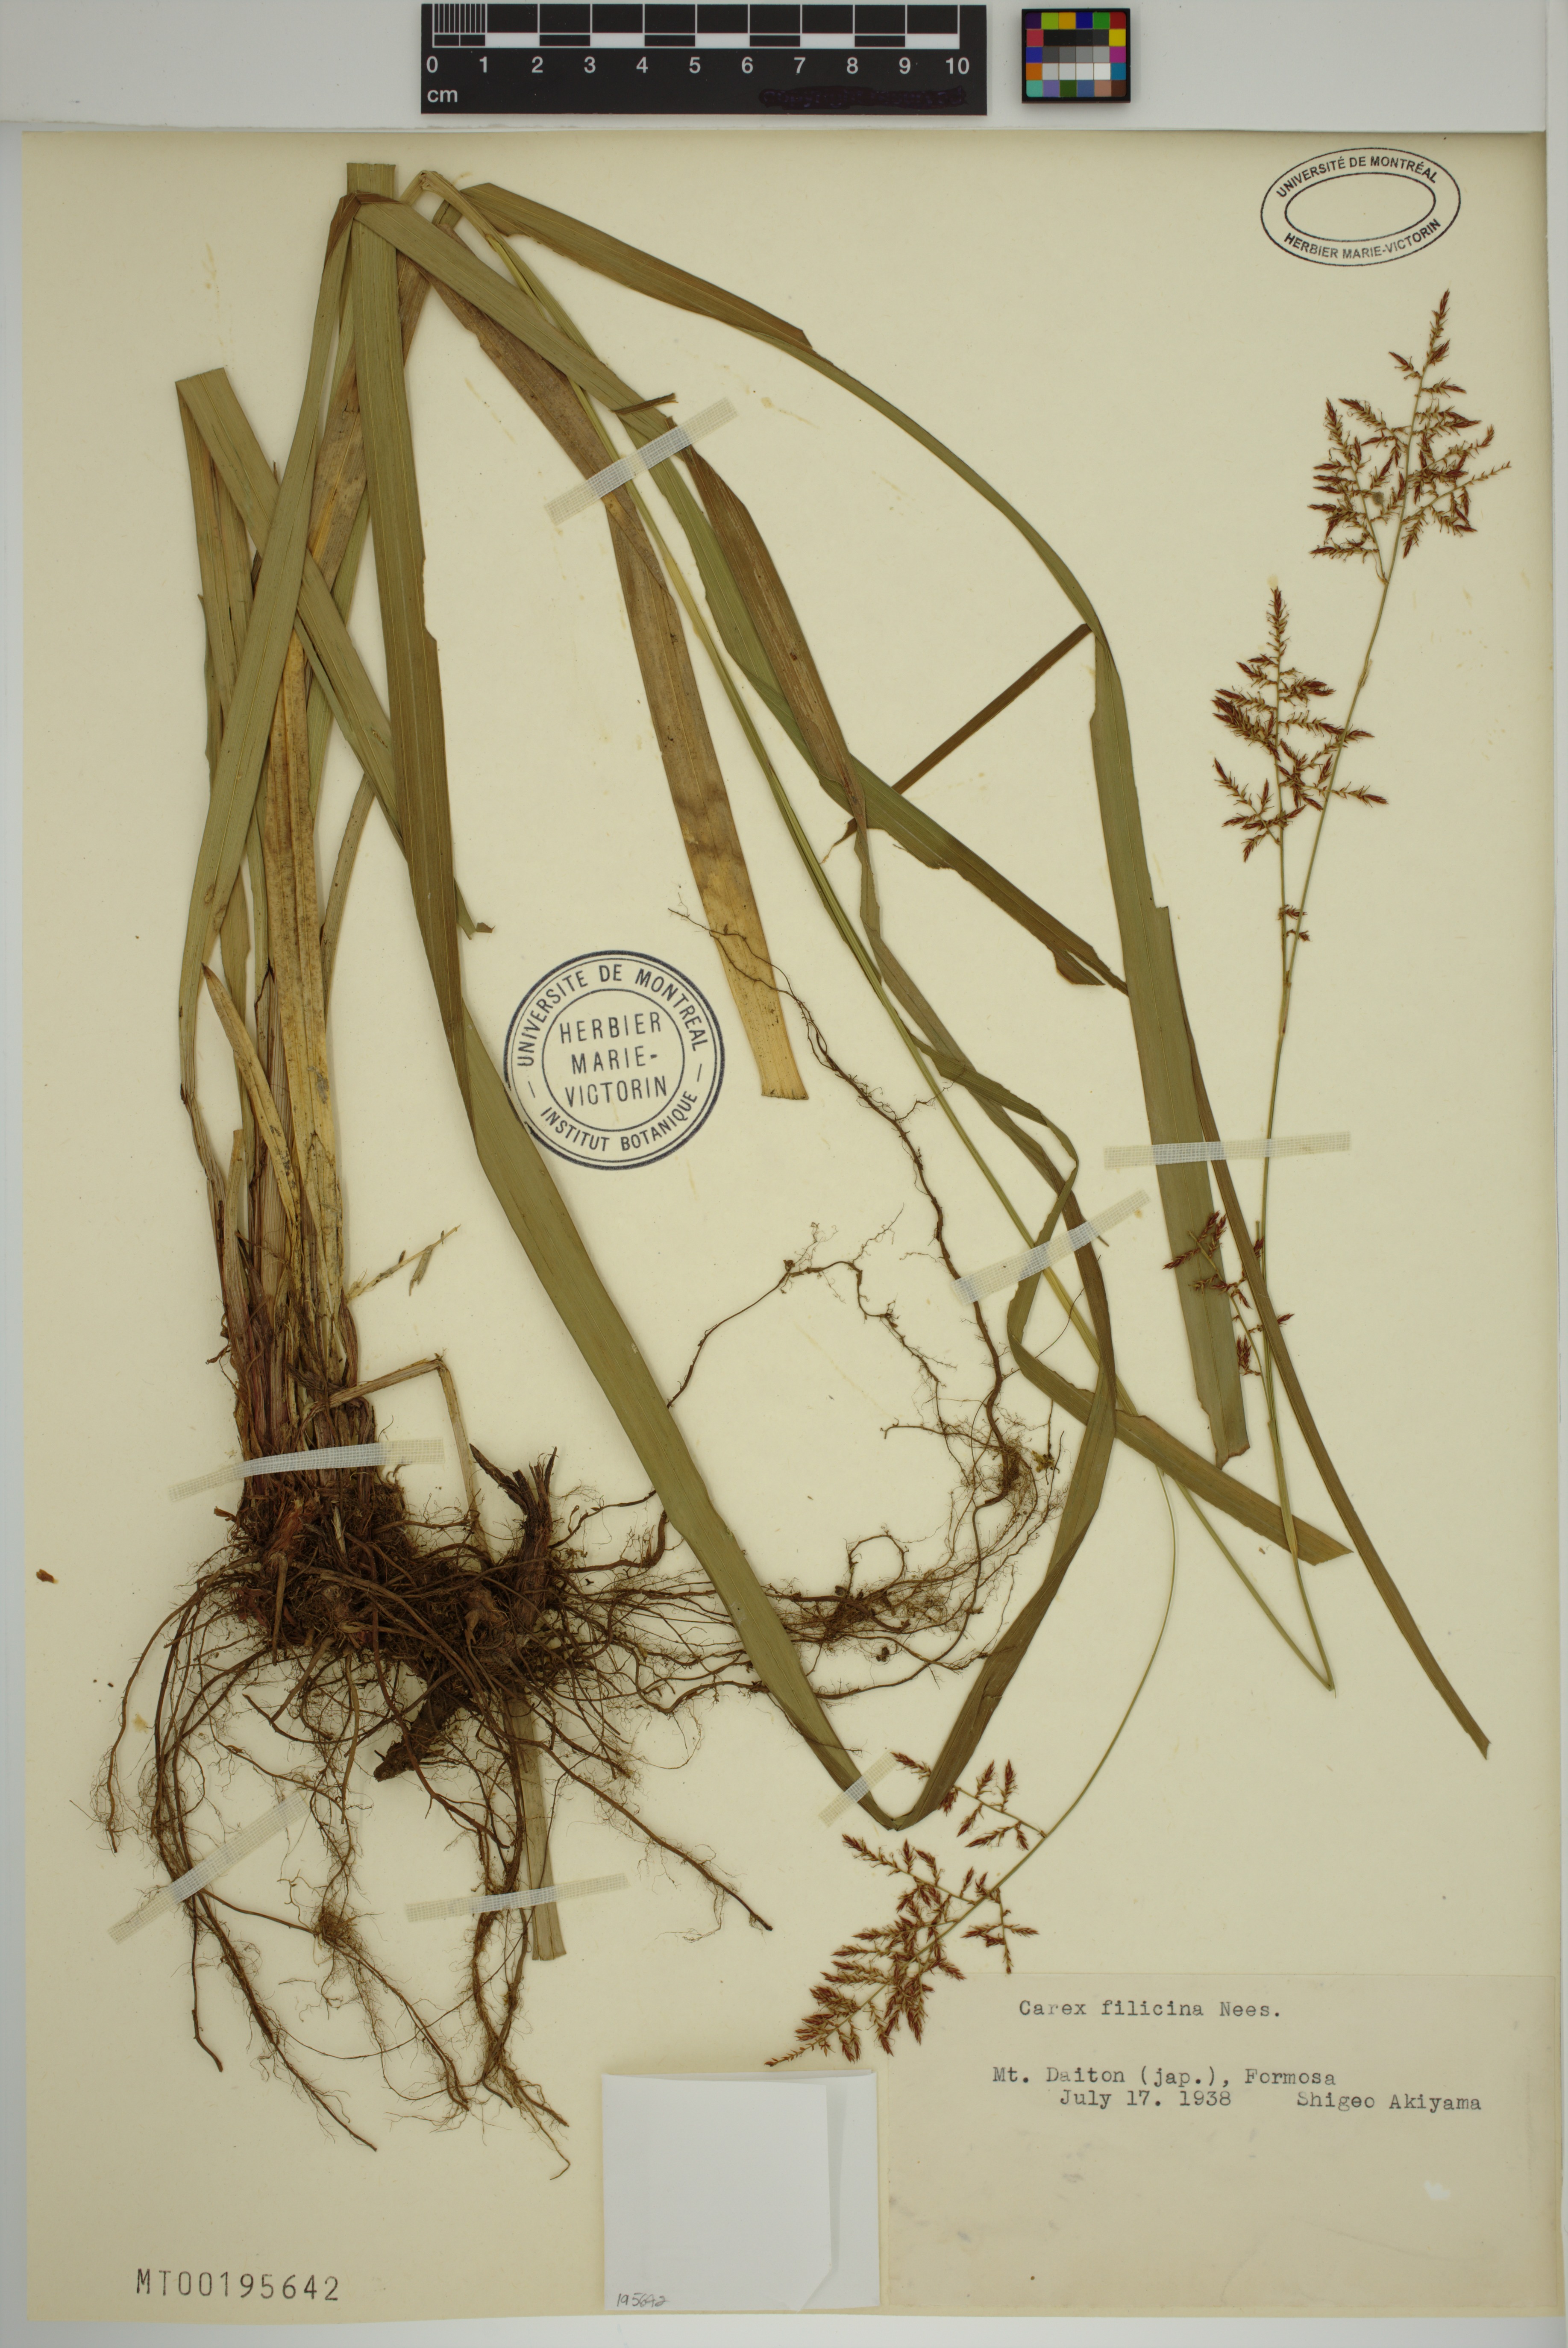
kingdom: Plantae
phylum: Tracheophyta
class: Liliopsida
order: Poales
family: Cyperaceae
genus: Carex
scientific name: Carex filicina
